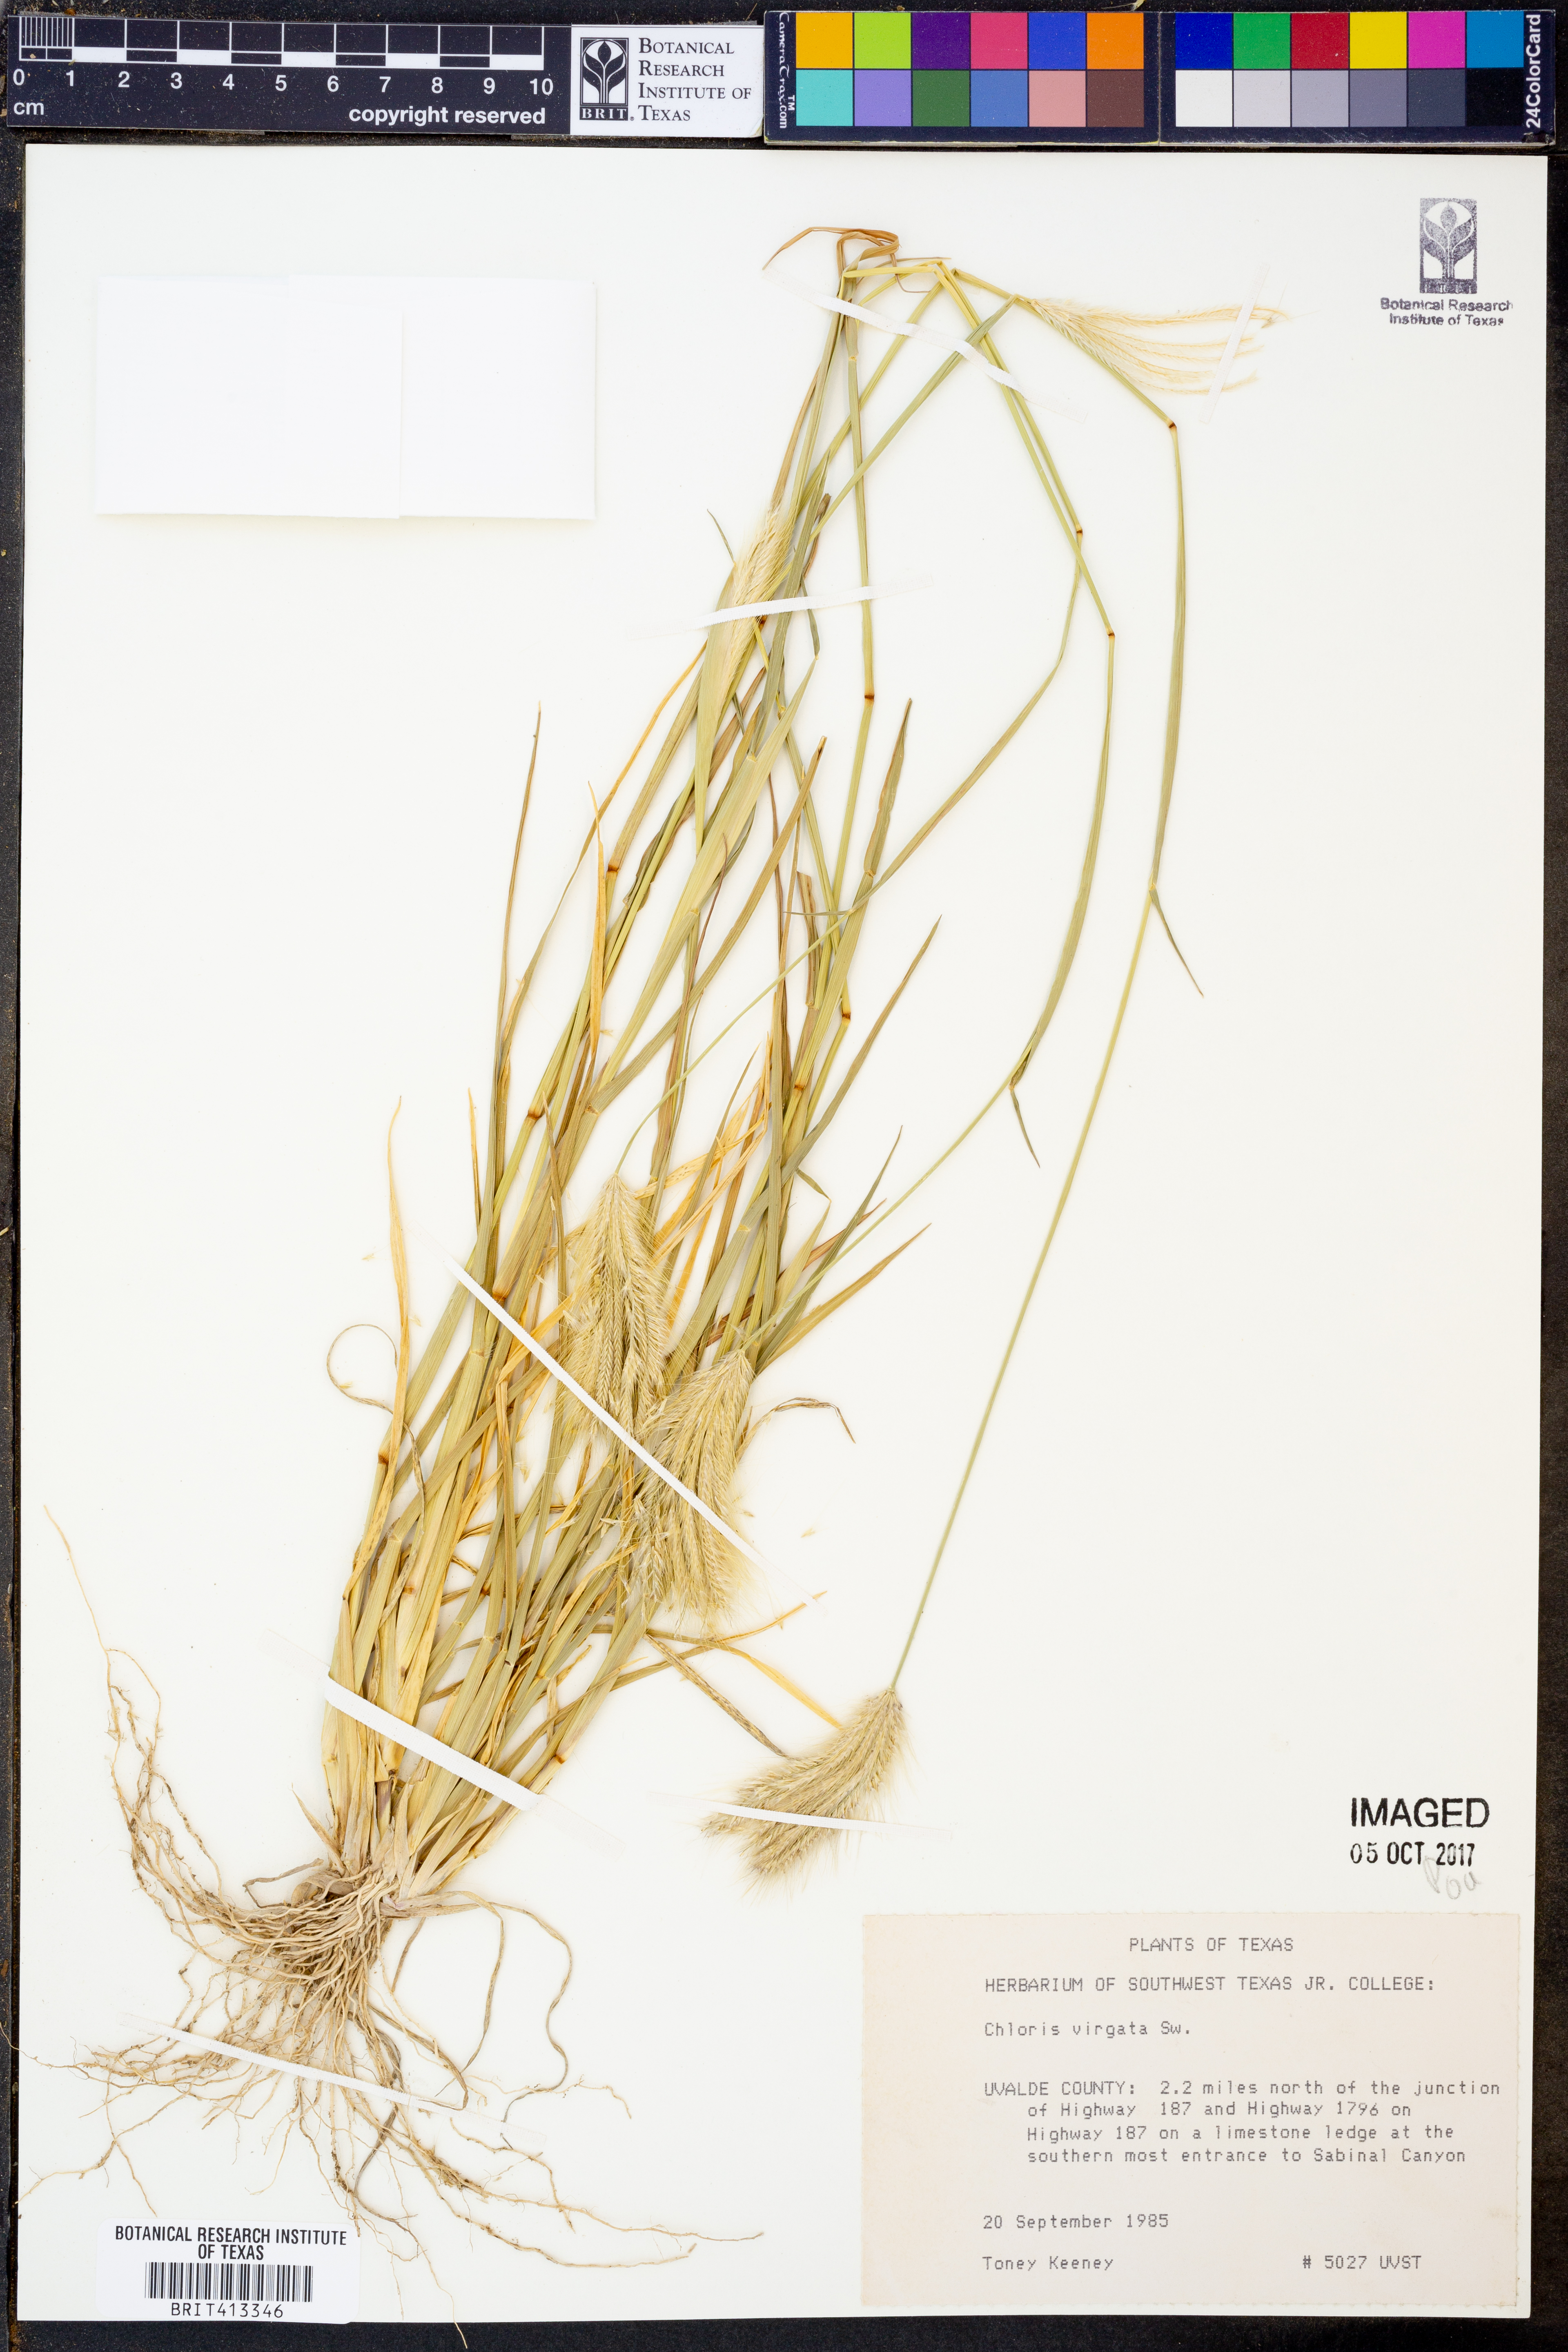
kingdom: Plantae
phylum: Tracheophyta
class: Liliopsida
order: Poales
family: Poaceae
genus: Chloris
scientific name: Chloris virgata
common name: Feathery rhodes-grass
